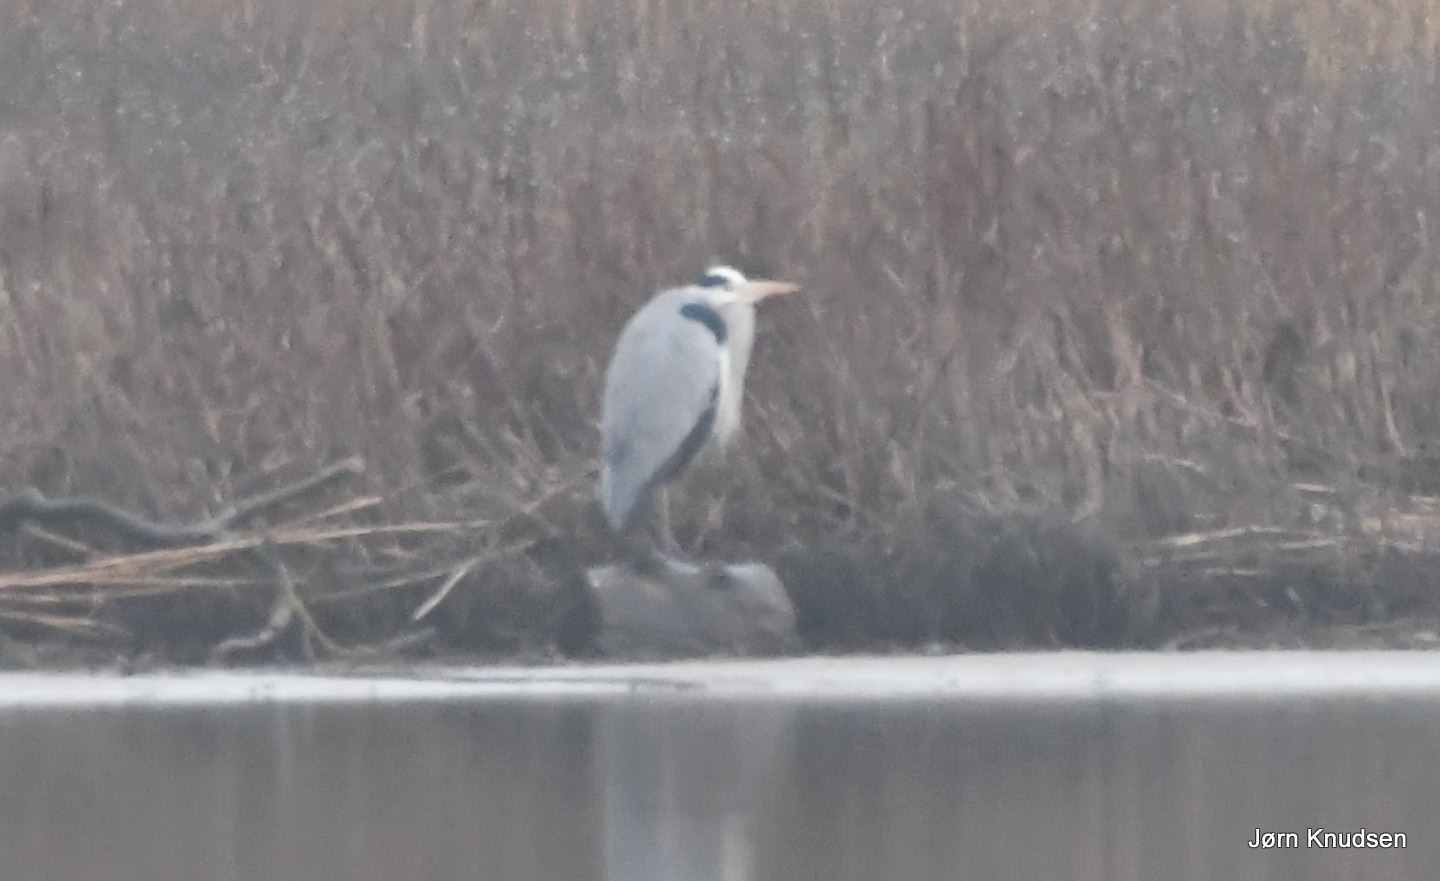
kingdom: Animalia
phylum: Chordata
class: Aves
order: Pelecaniformes
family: Ardeidae
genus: Ardea
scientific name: Ardea cinerea
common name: Fiskehejre
